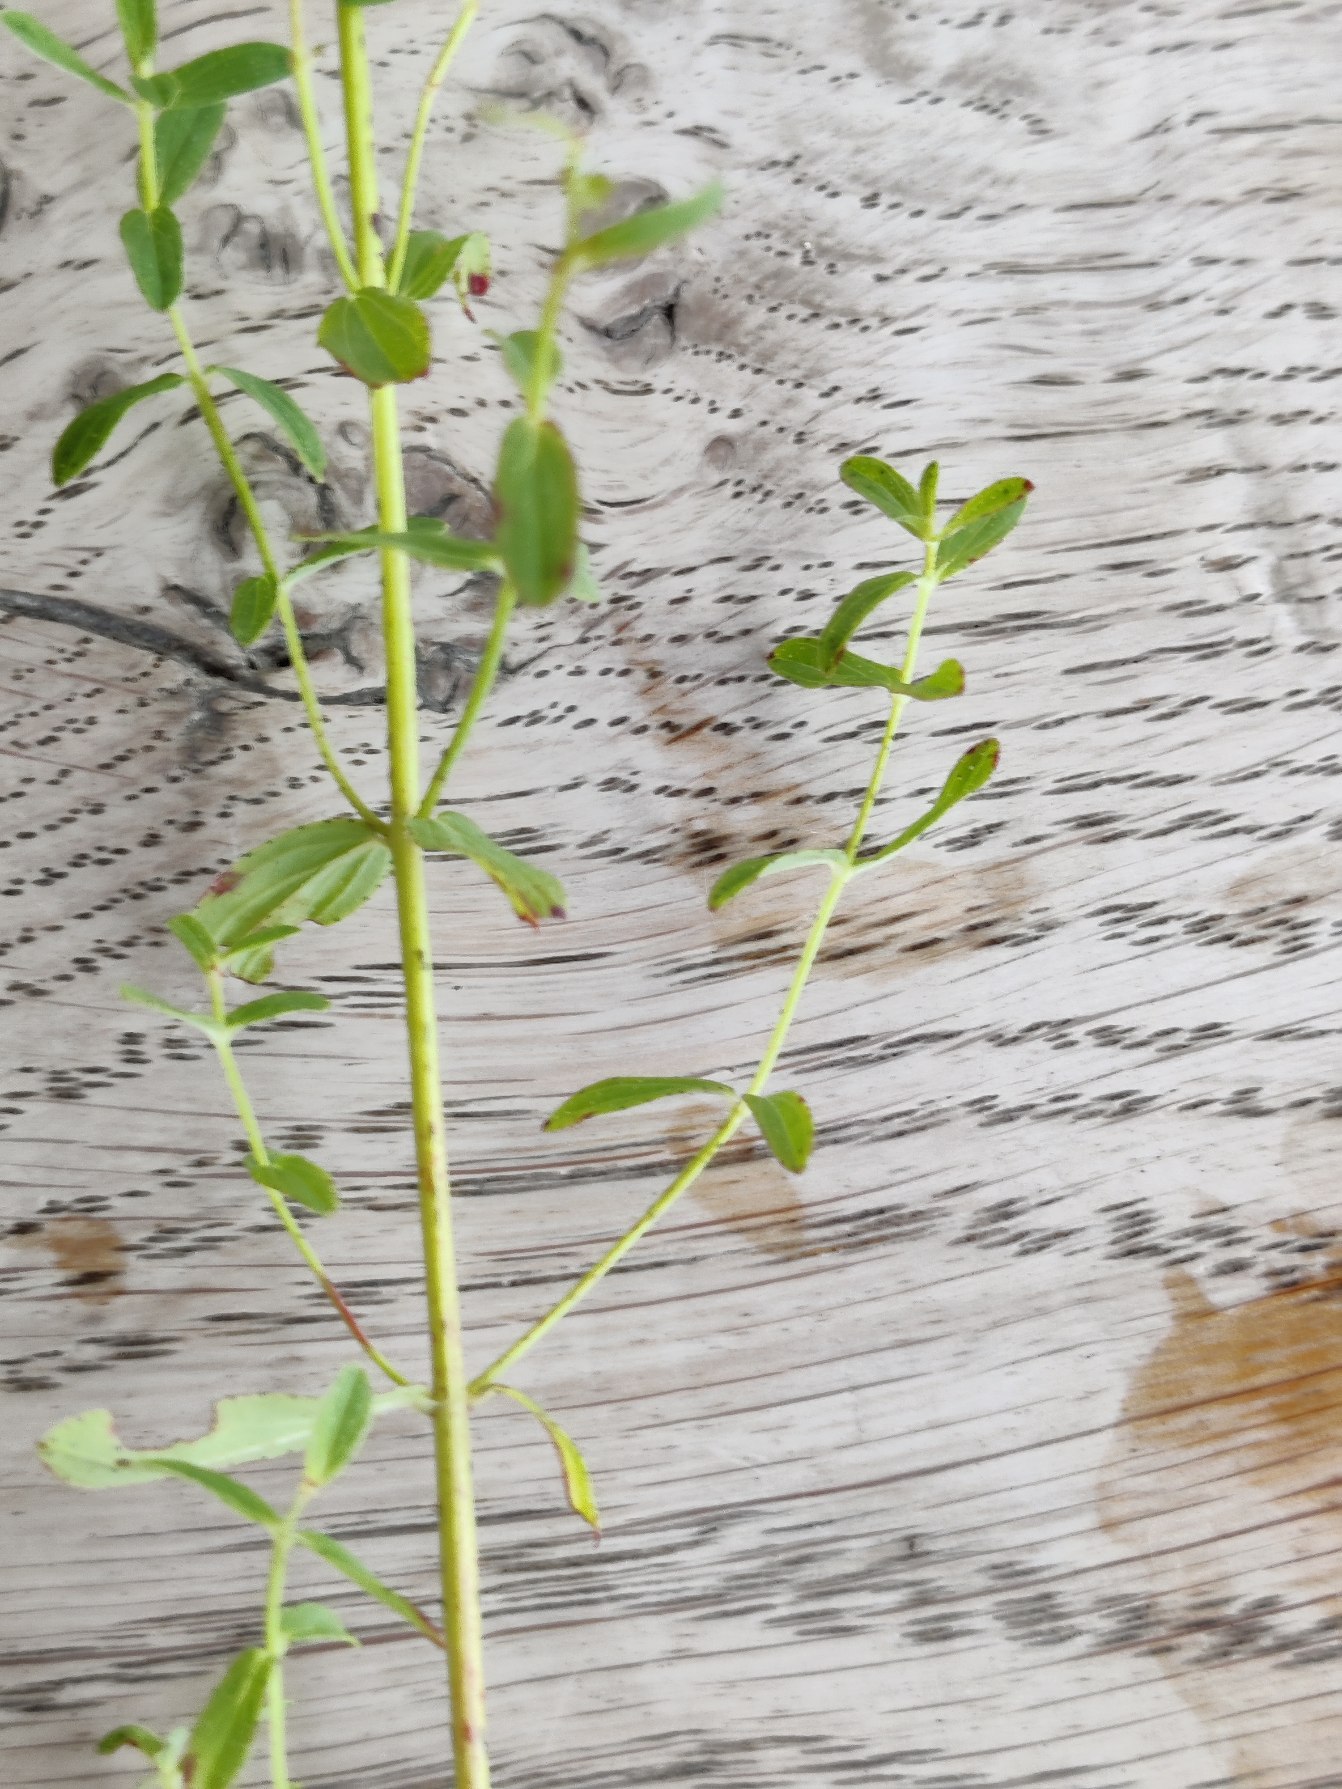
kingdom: Plantae
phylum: Tracheophyta
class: Magnoliopsida
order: Malpighiales
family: Hypericaceae
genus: Hypericum
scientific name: Hypericum perforatum
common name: Prikbladet perikon
